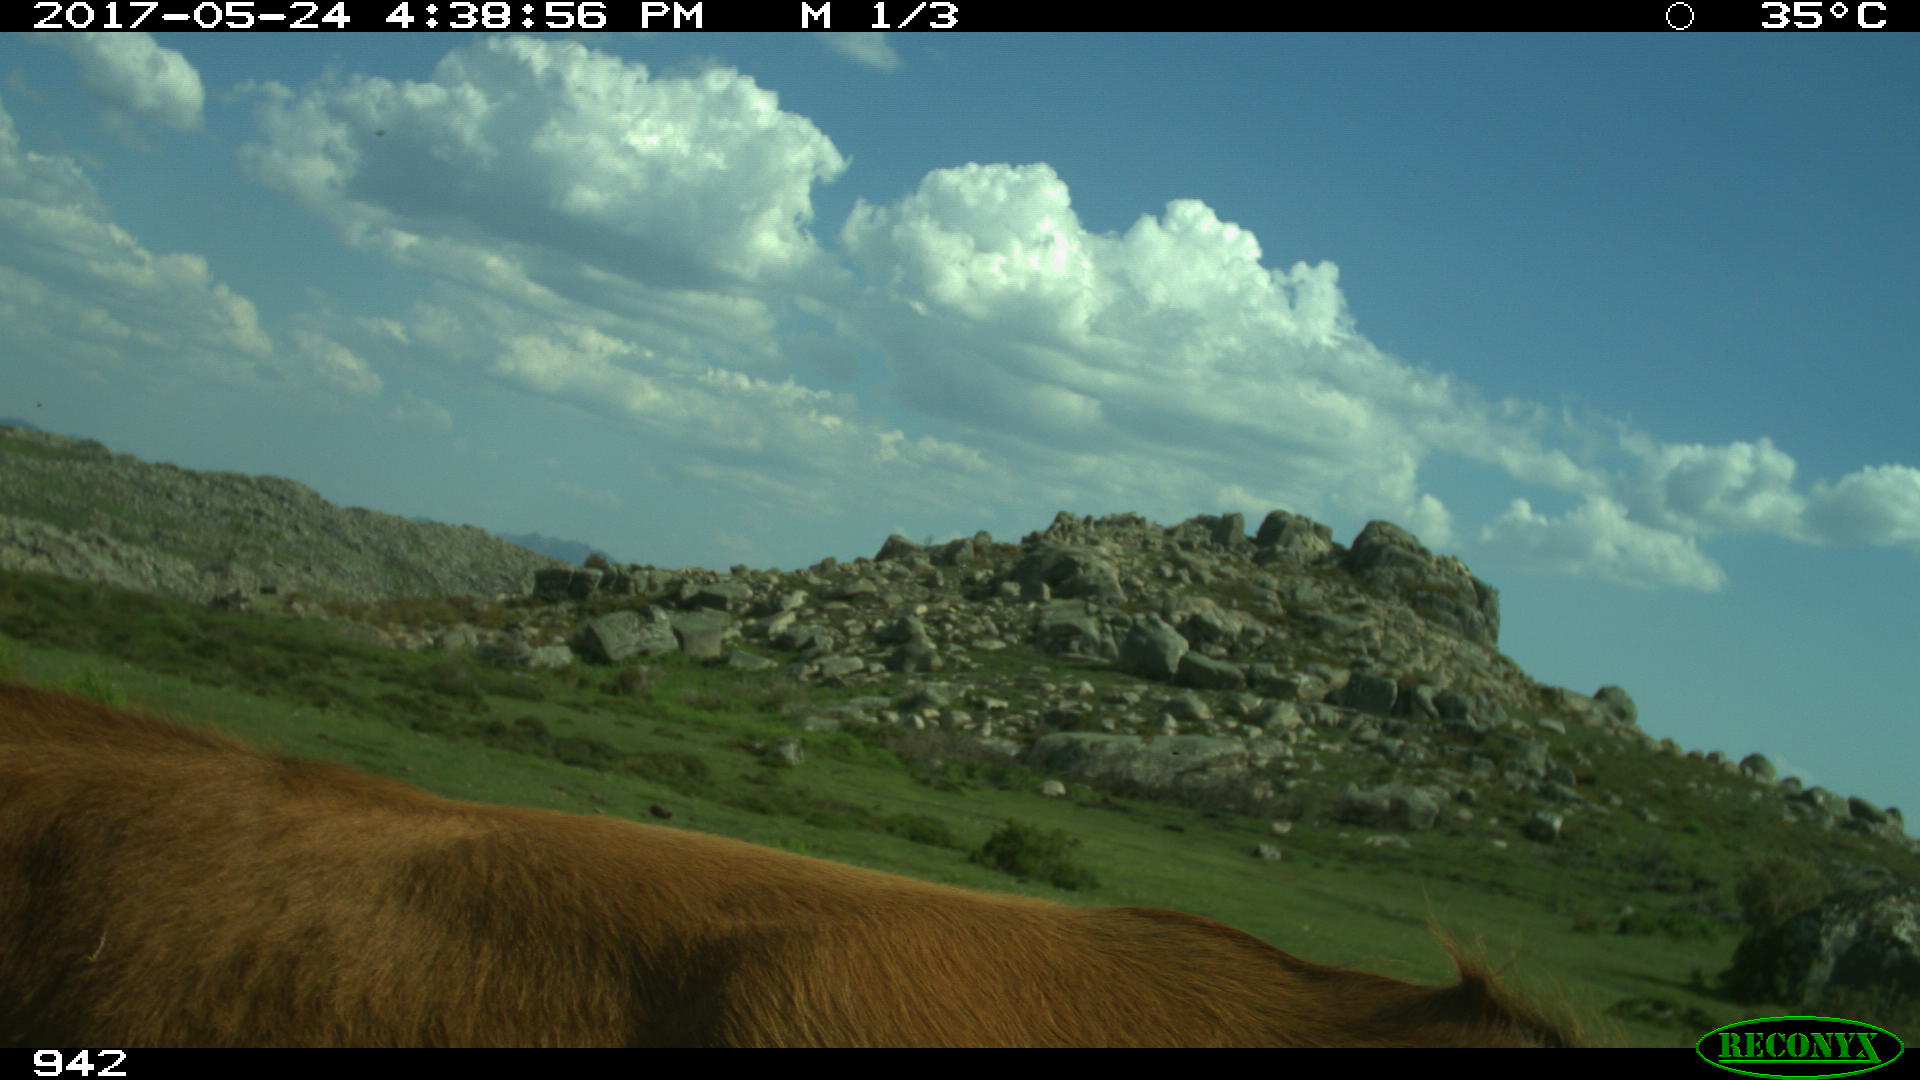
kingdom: Animalia
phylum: Chordata
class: Mammalia
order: Artiodactyla
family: Bovidae
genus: Bos
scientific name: Bos taurus
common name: Domesticated cattle
